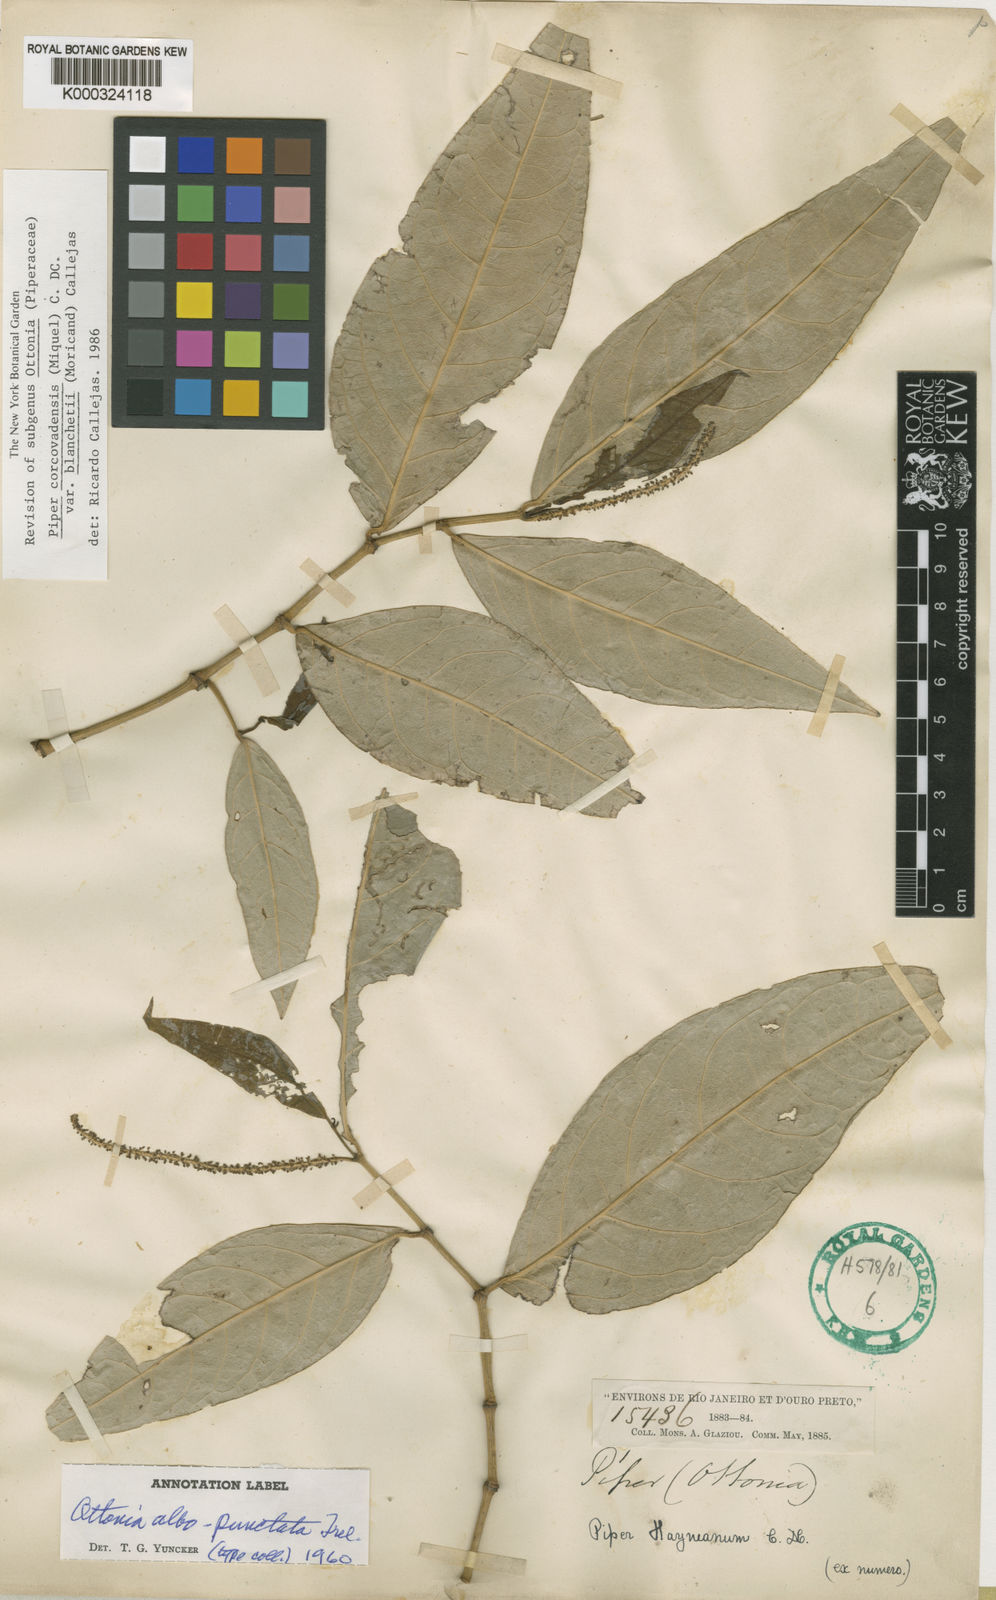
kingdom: Plantae
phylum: Tracheophyta
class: Magnoliopsida
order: Piperales
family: Piperaceae
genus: Piper
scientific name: Piper corcovadense
